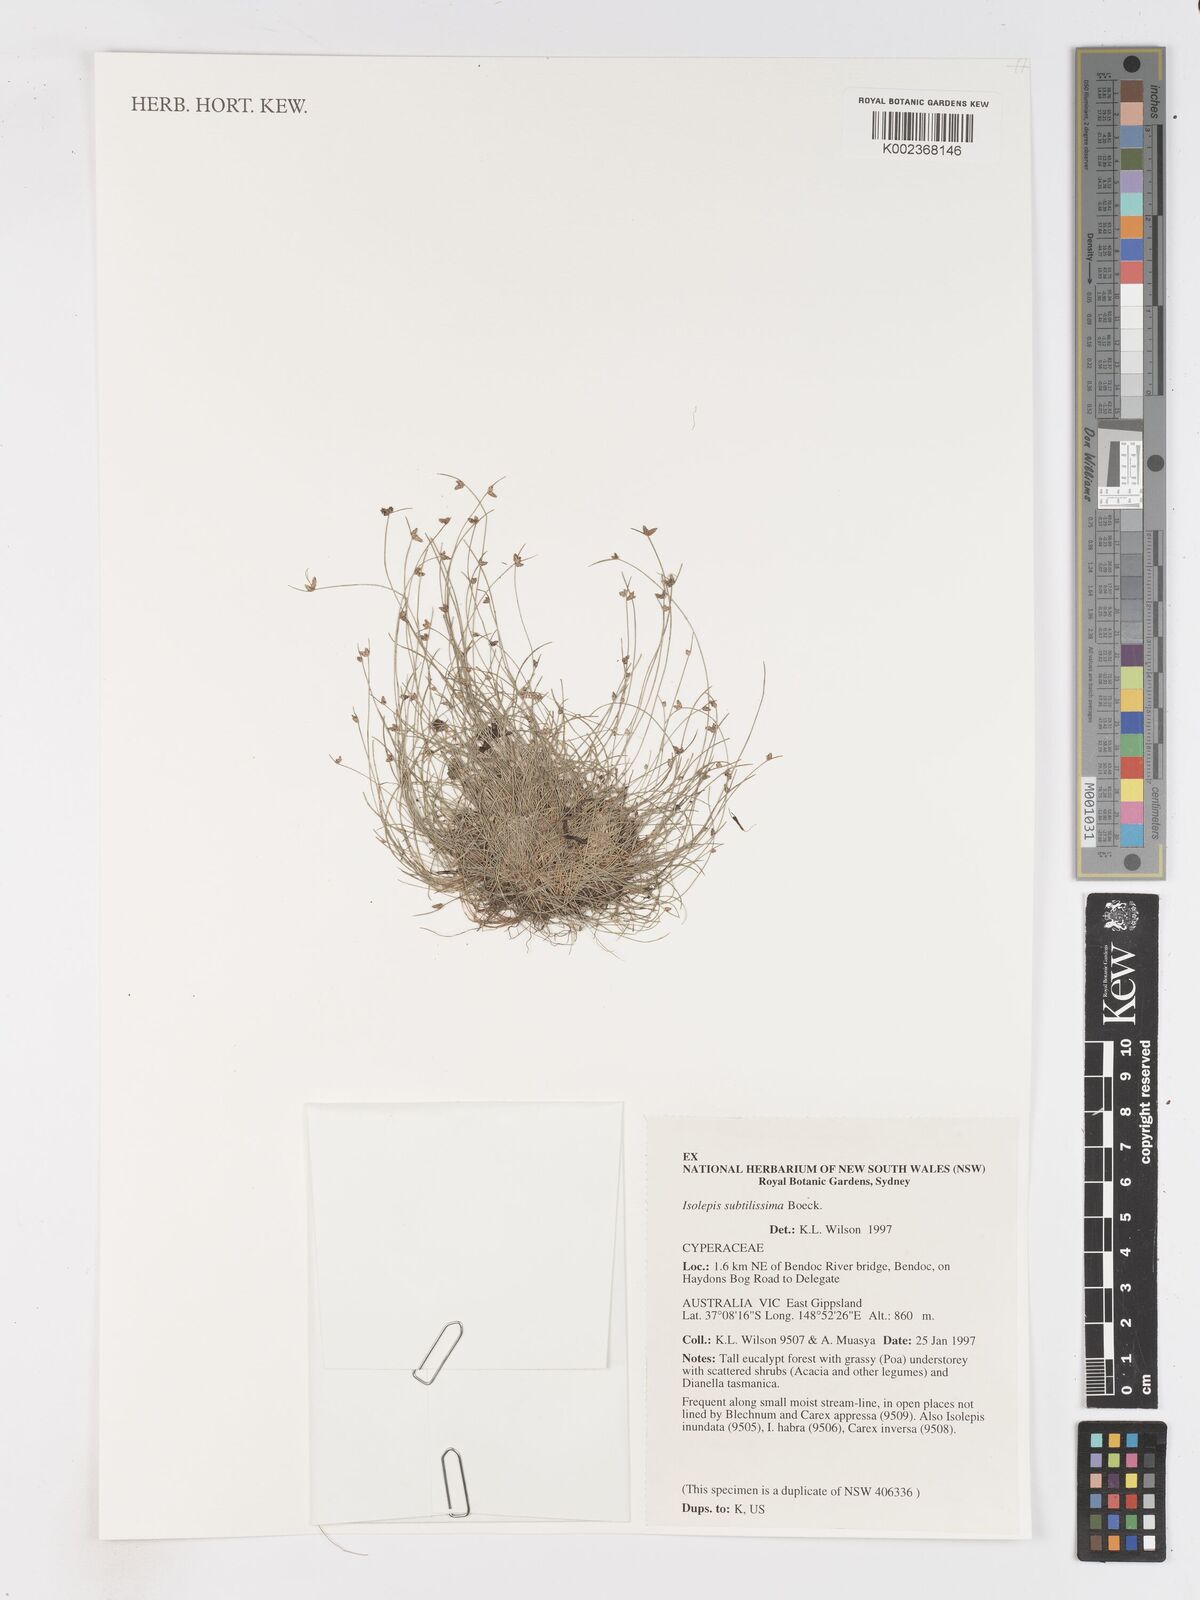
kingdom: Plantae
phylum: Tracheophyta
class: Liliopsida
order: Poales
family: Cyperaceae
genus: Isolepis
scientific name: Isolepis subtilissima
